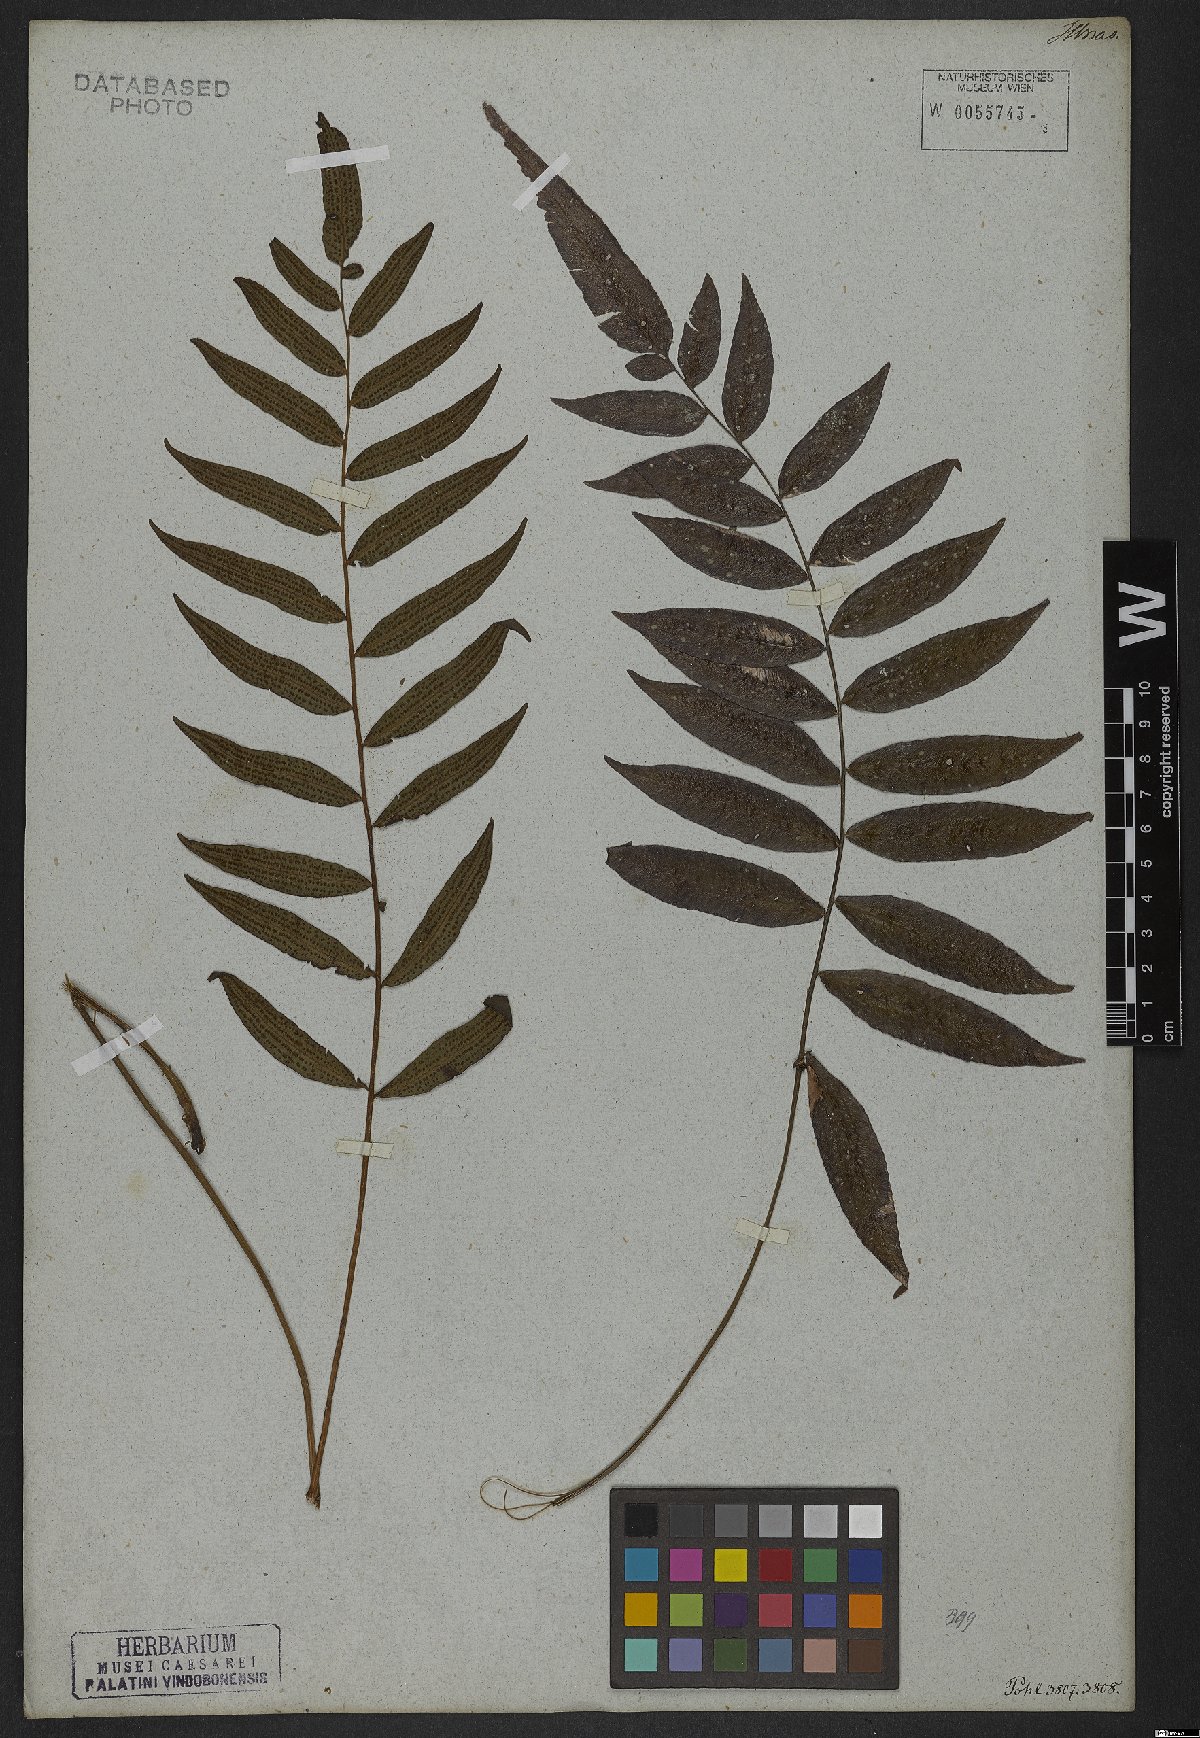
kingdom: Plantae
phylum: Tracheophyta
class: Polypodiopsida
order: Polypodiales
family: Thelypteridaceae
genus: Goniopteris
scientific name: Goniopteris vivipara
